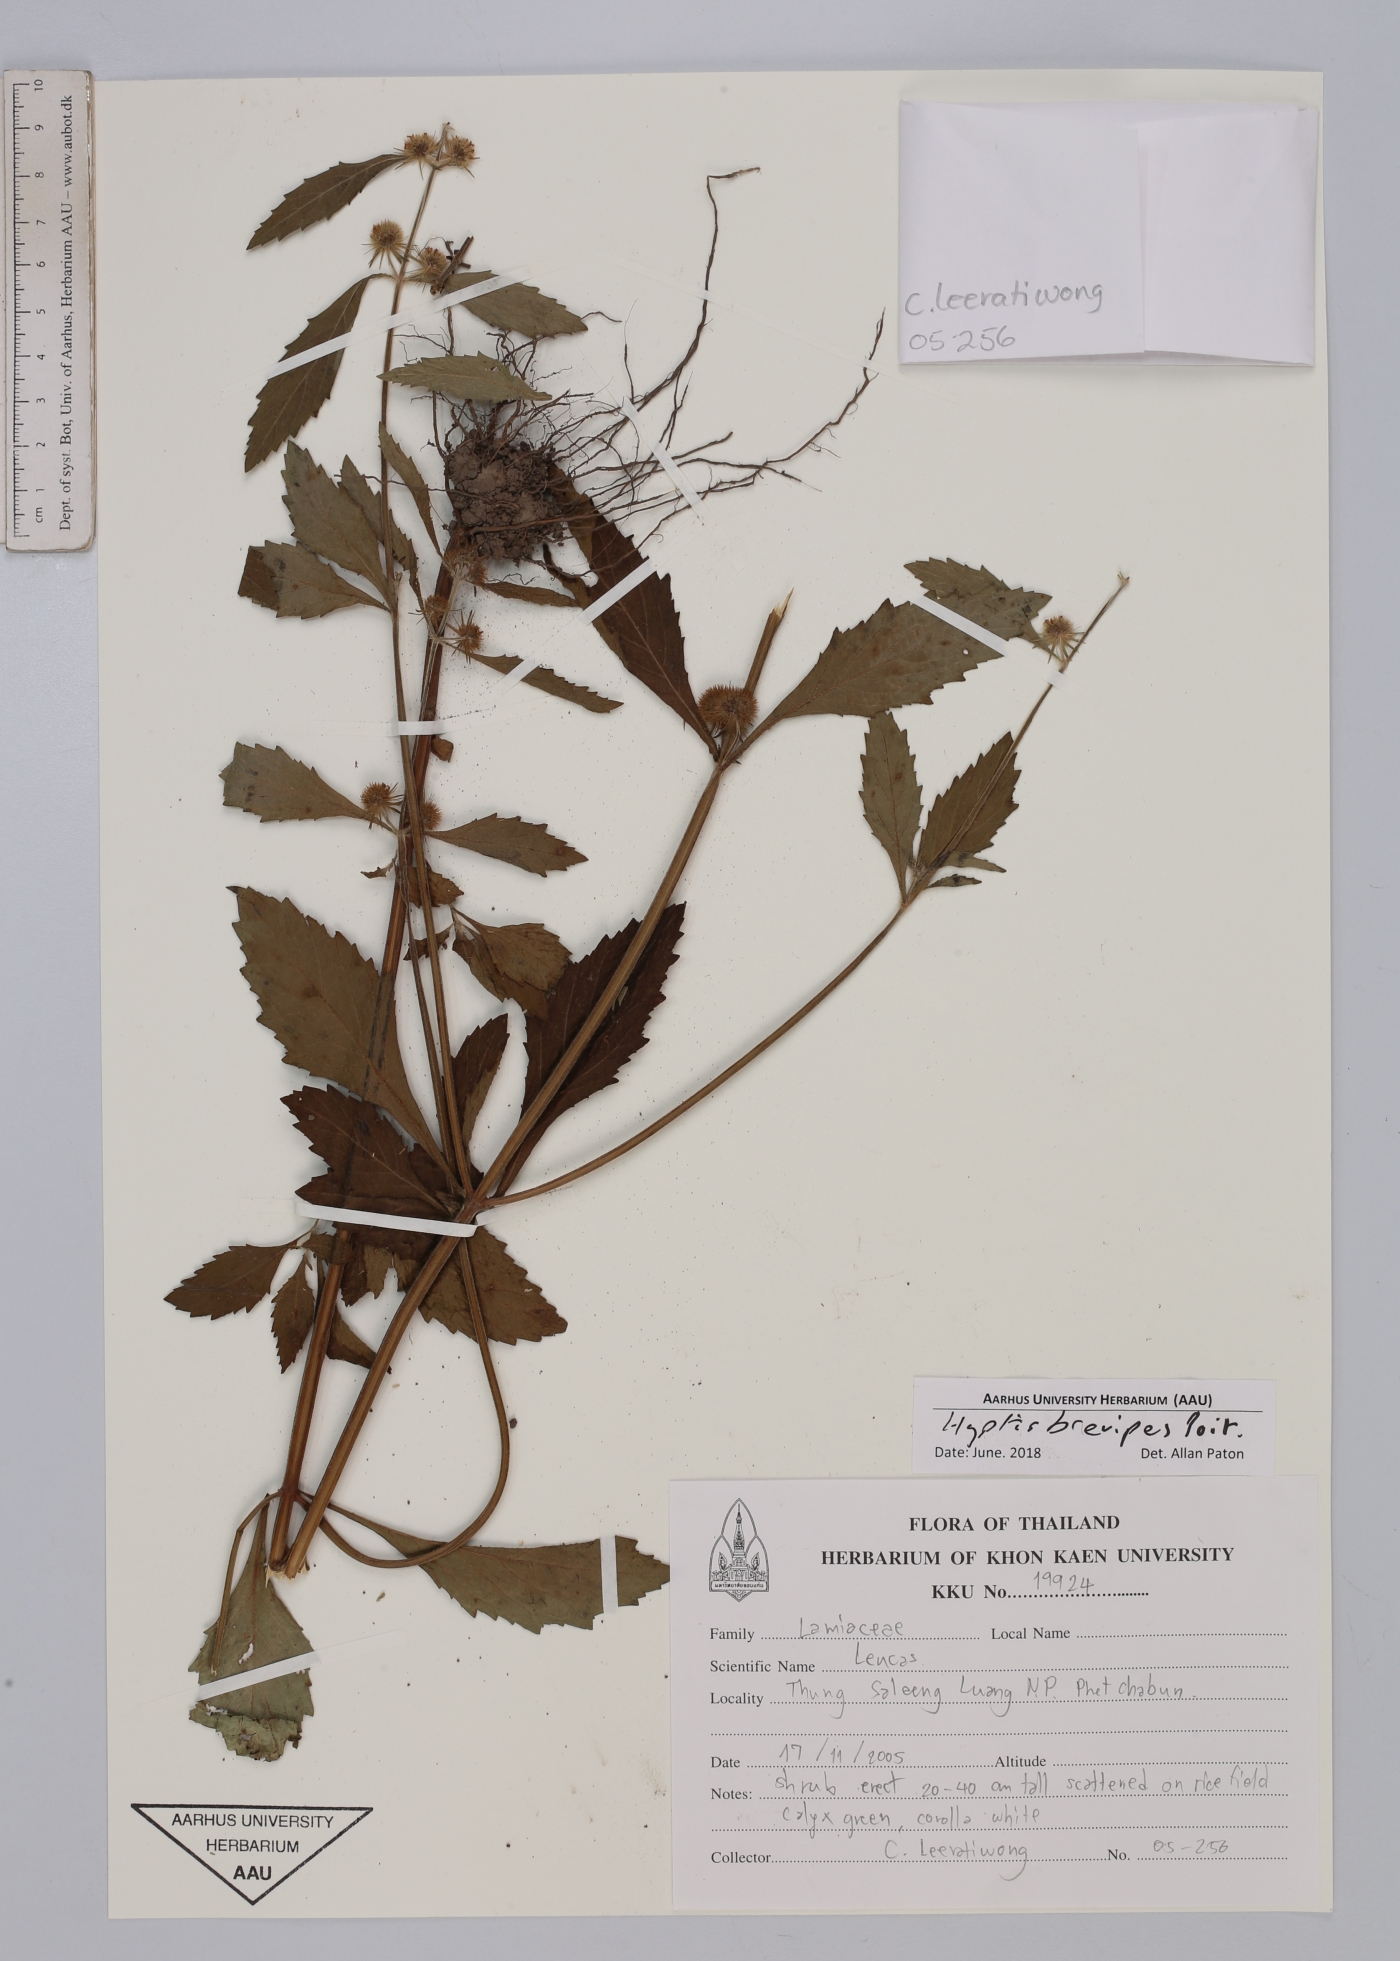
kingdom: Plantae
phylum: Tracheophyta
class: Magnoliopsida
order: Lamiales
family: Lamiaceae
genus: Hyptis
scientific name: Hyptis brevipes
